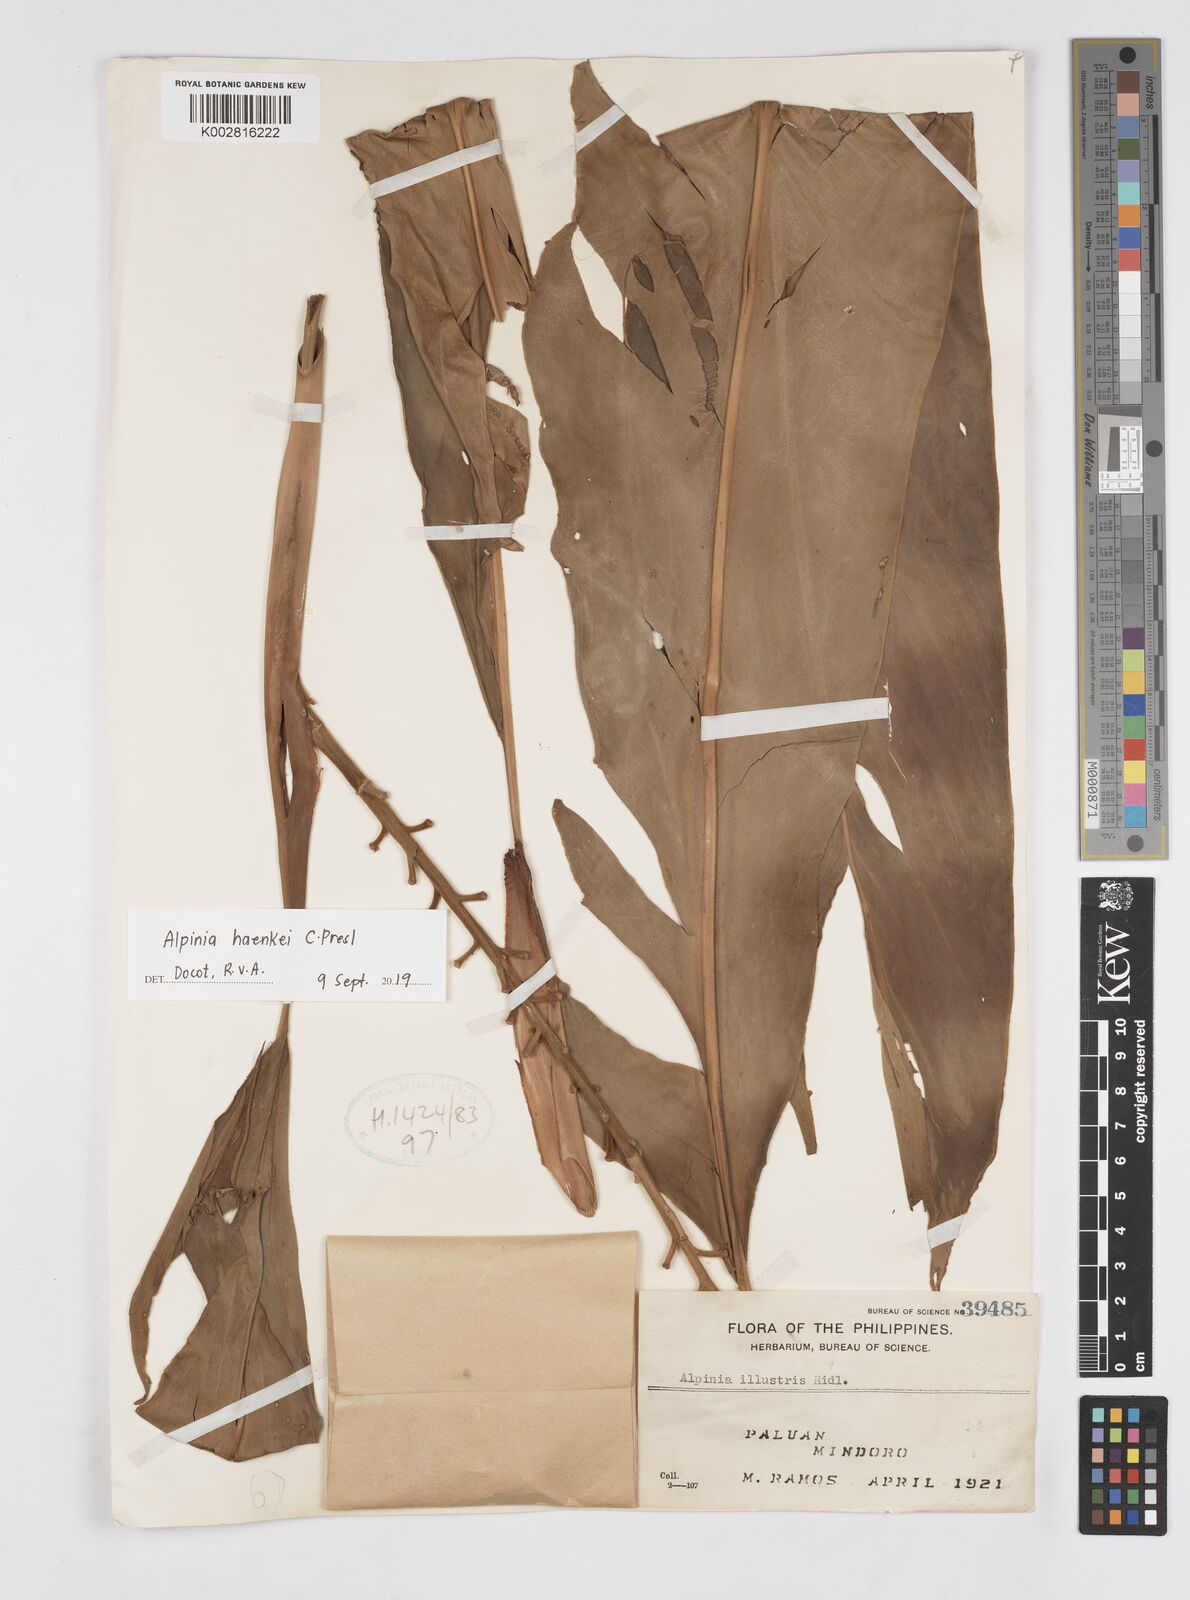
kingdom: Plantae
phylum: Tracheophyta
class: Liliopsida
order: Zingiberales
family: Zingiberaceae
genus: Alpinia
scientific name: Alpinia haenkei
